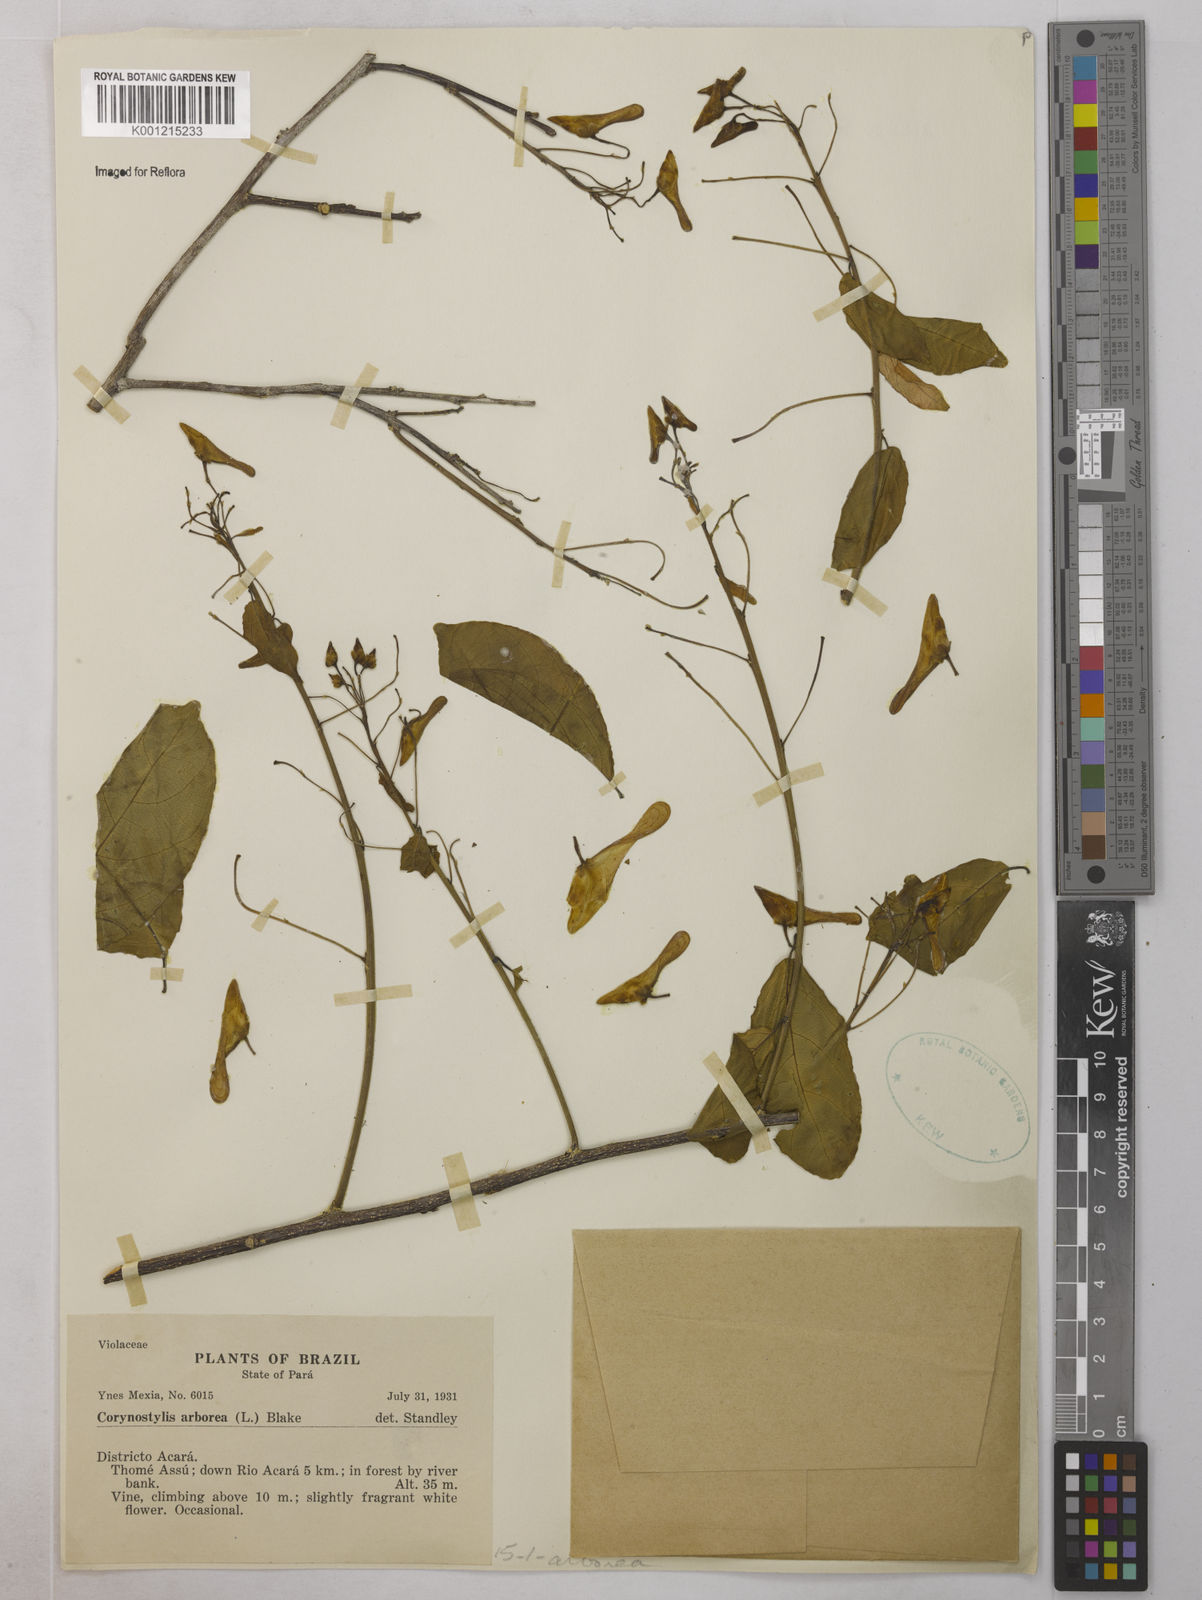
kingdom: Plantae
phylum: Tracheophyta
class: Magnoliopsida
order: Malpighiales
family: Violaceae
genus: Calyptrion
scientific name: Calyptrion arboreum
